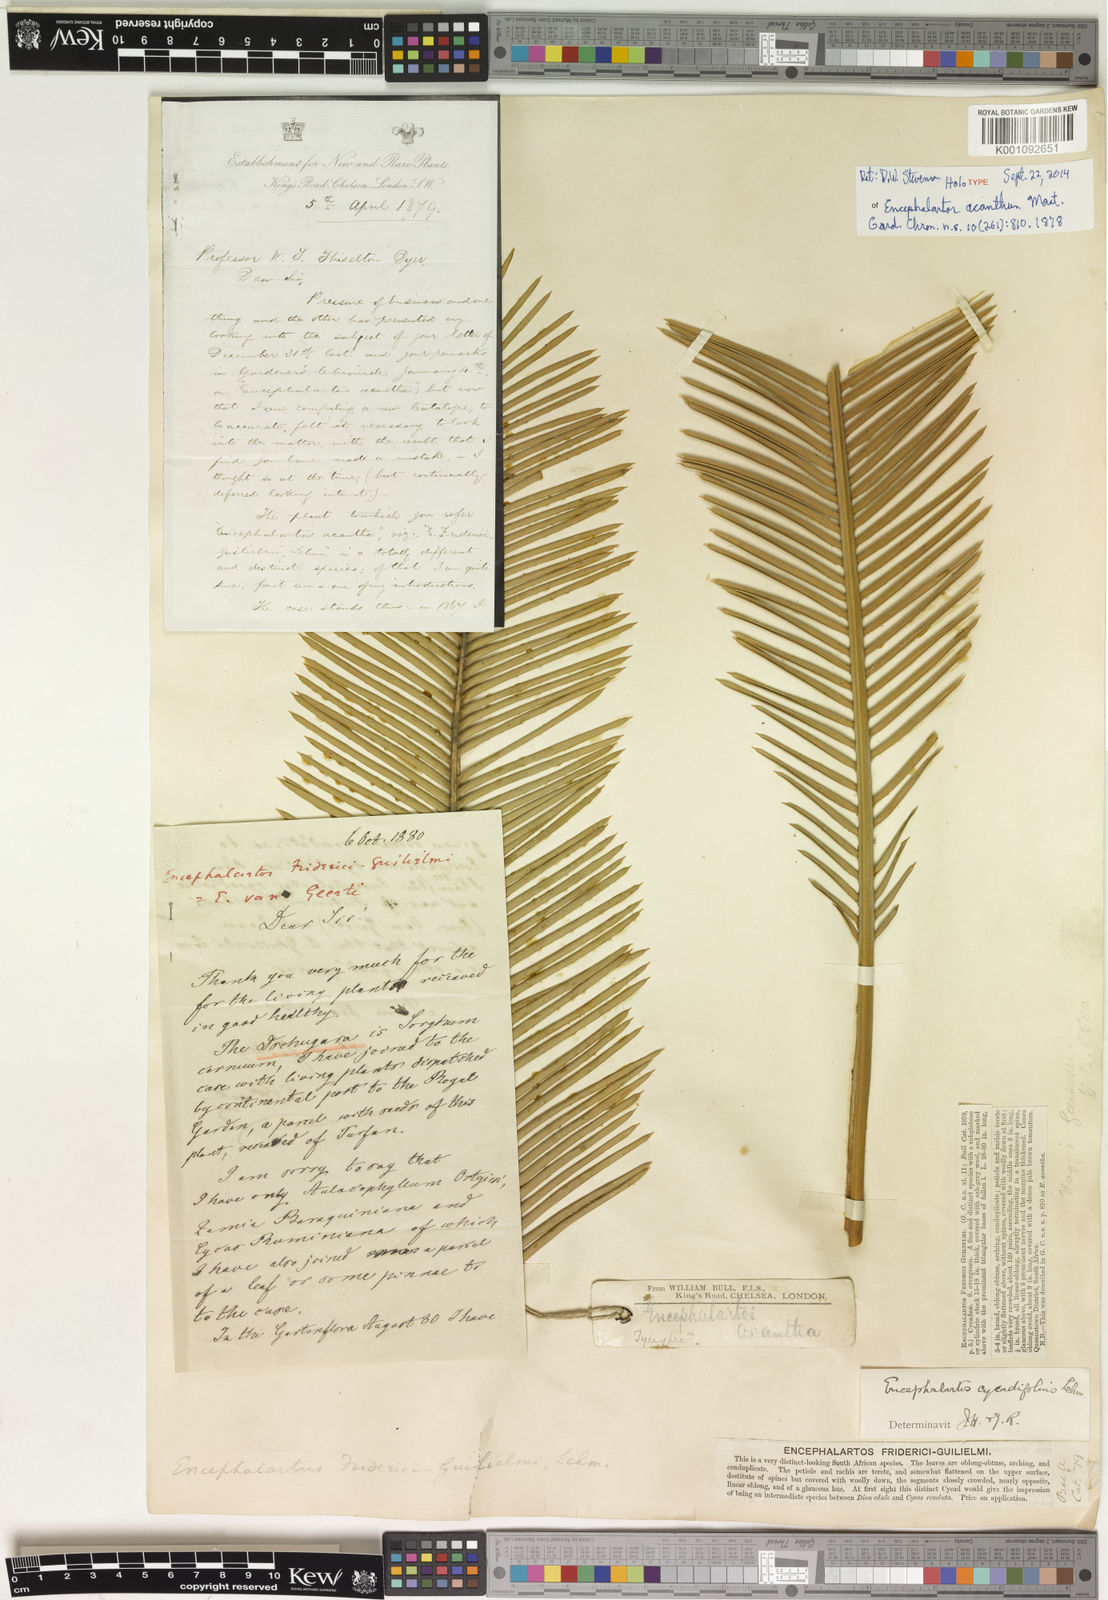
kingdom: Plantae
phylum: Tracheophyta
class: Cycadopsida
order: Cycadales
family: Zamiaceae
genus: Encephalartos
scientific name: Encephalartos friderici-guilielmi
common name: White-haired cycad
